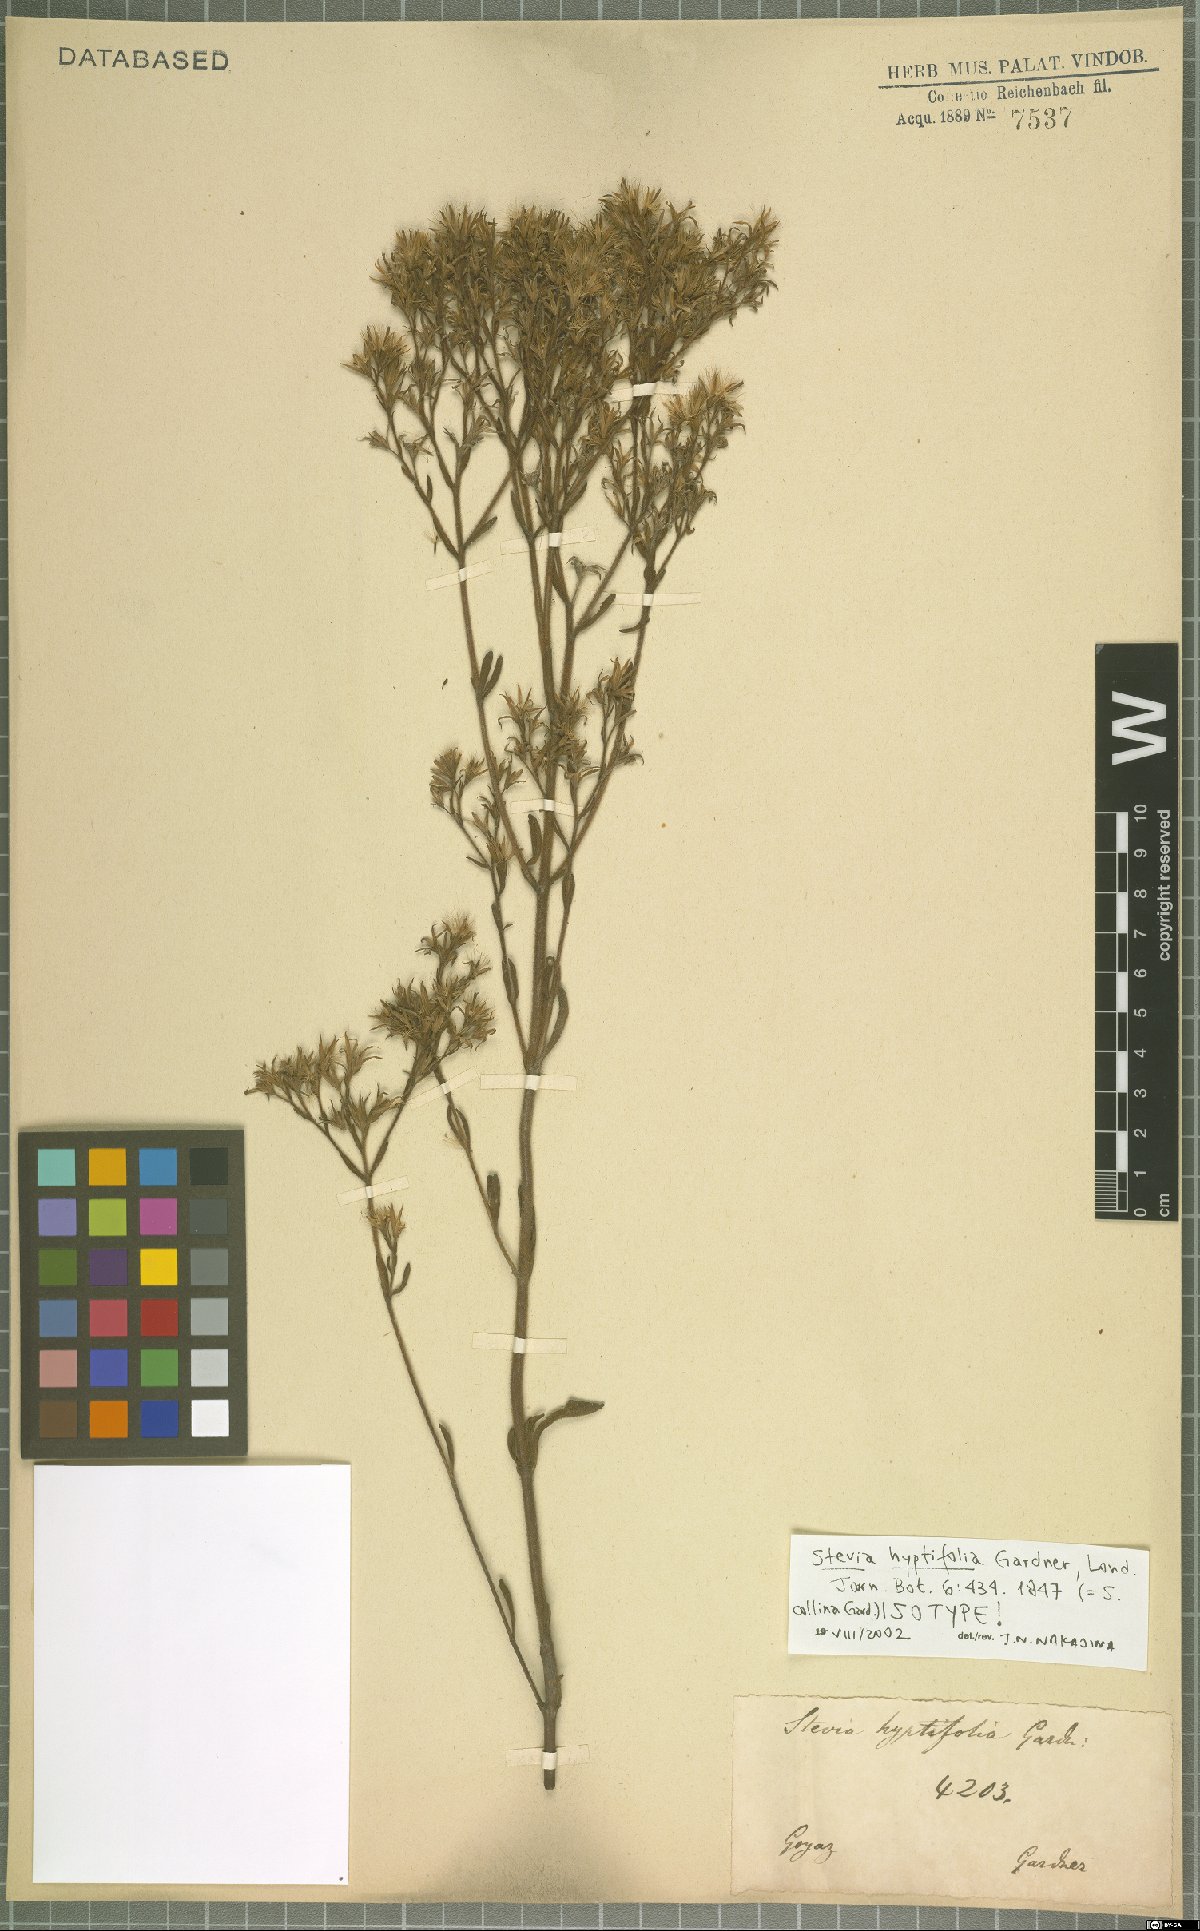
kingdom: Plantae
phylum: Tracheophyta
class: Magnoliopsida
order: Asterales
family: Asteraceae
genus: Stevia
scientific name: Stevia collina
